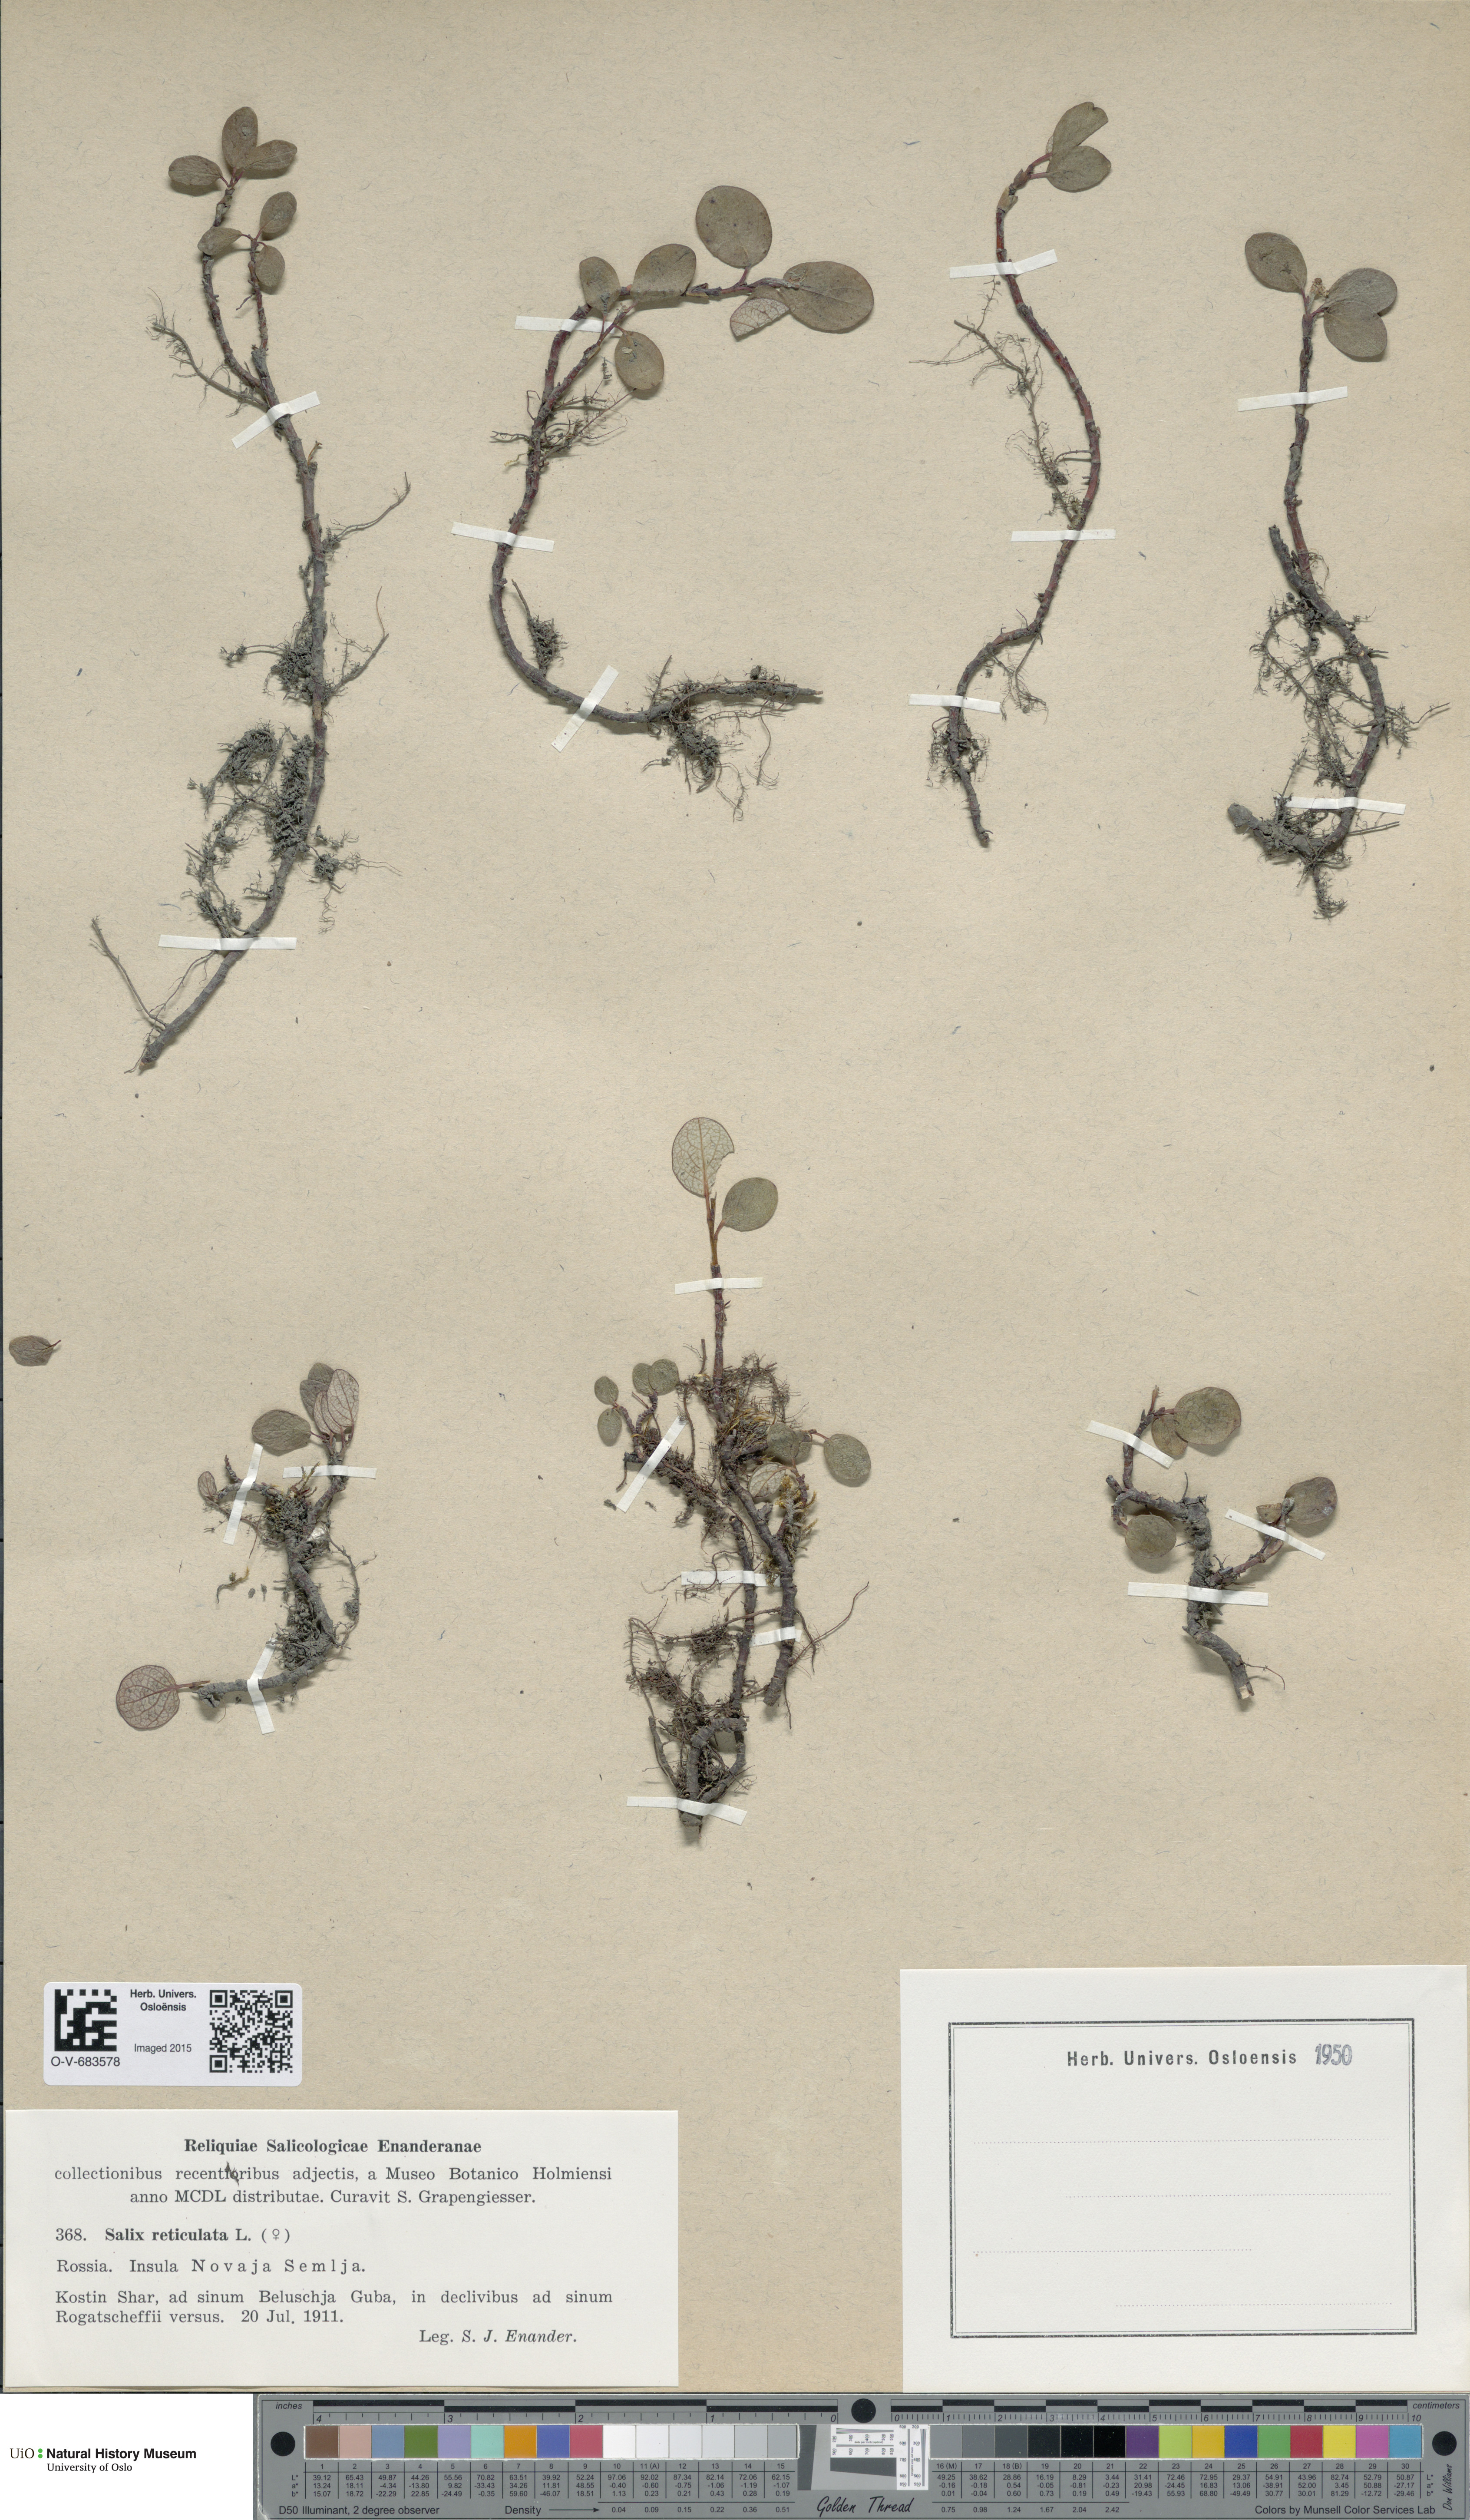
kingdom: Plantae
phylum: Tracheophyta
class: Magnoliopsida
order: Malpighiales
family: Salicaceae
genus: Salix
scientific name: Salix reticulata
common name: Net-leaved willow
